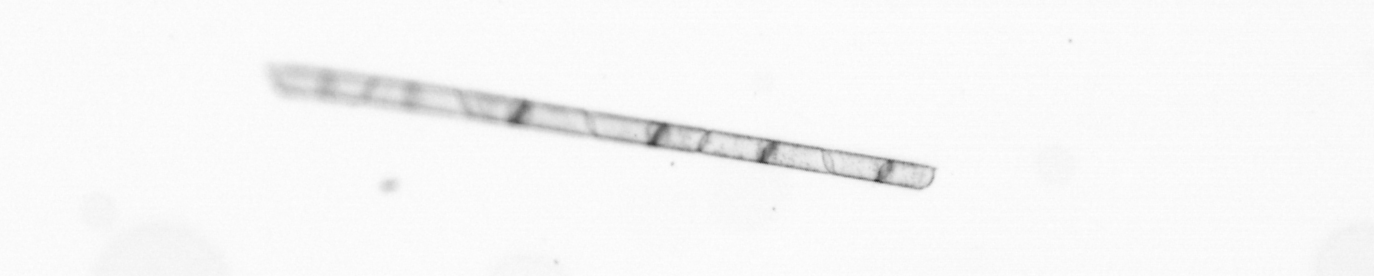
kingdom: Chromista
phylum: Ochrophyta
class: Bacillariophyceae
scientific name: Bacillariophyceae
